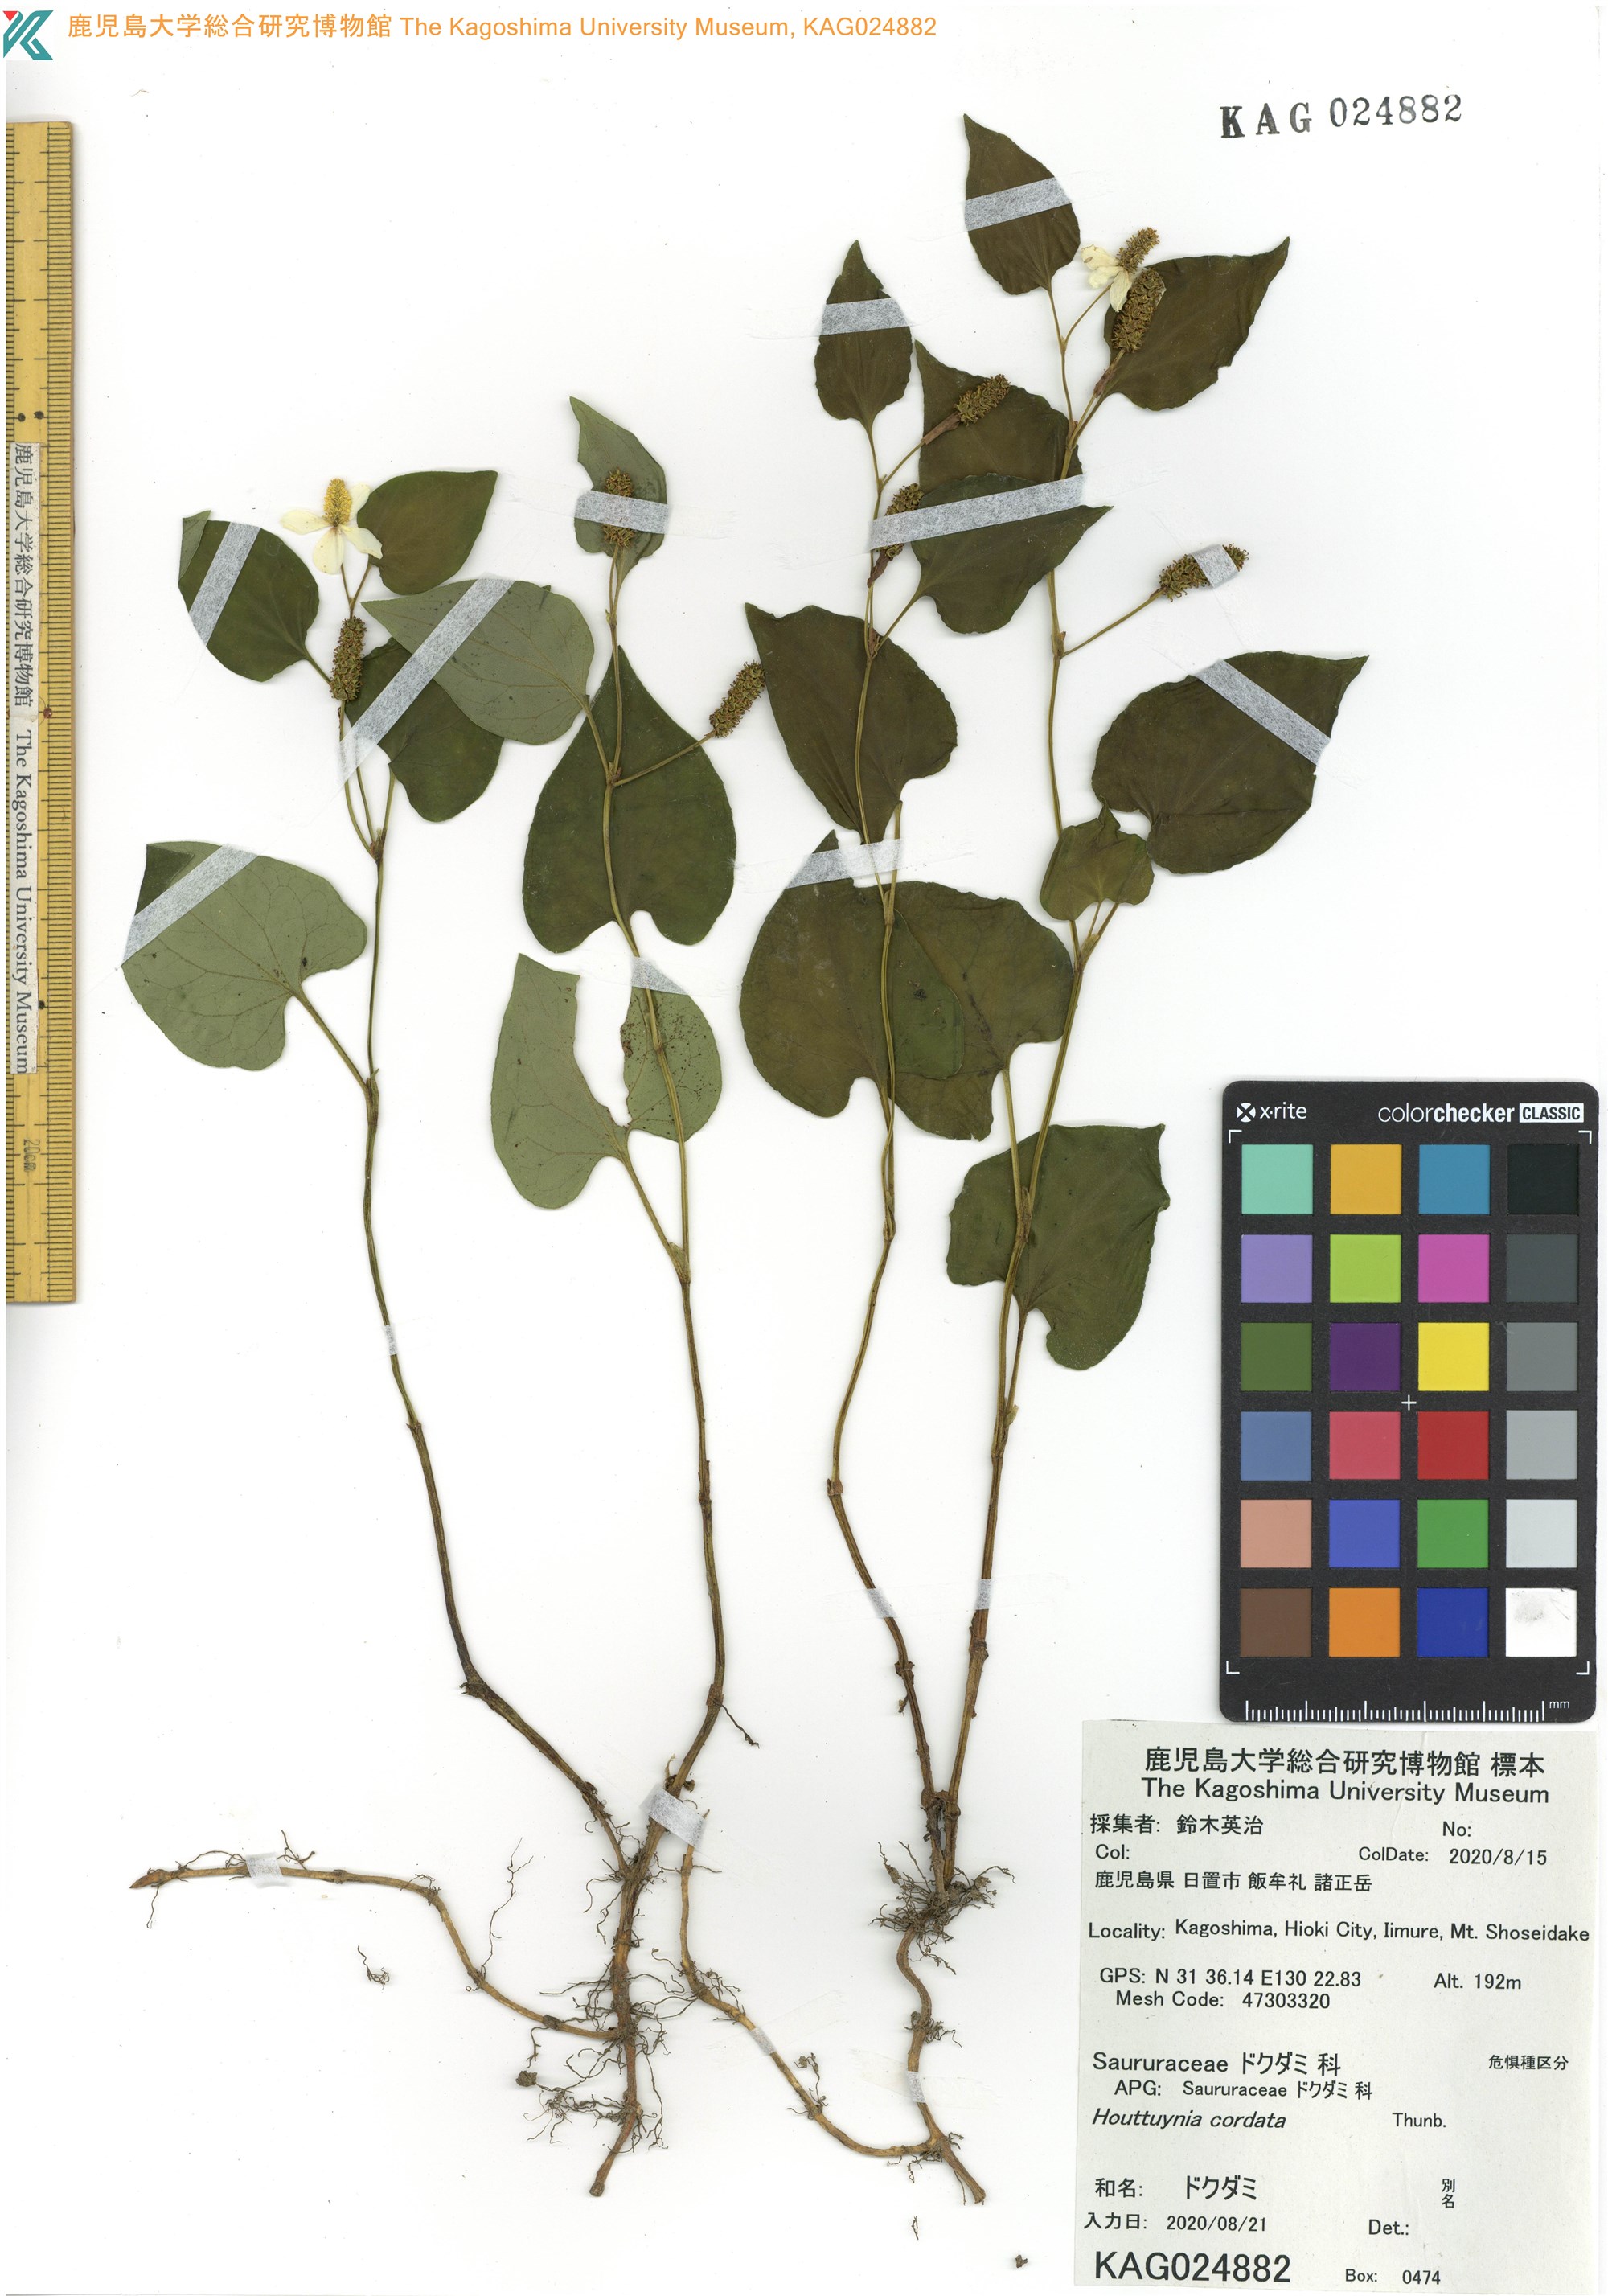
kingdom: Plantae
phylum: Tracheophyta
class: Magnoliopsida
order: Piperales
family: Saururaceae
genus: Houttuynia
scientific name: Houttuynia cordata
